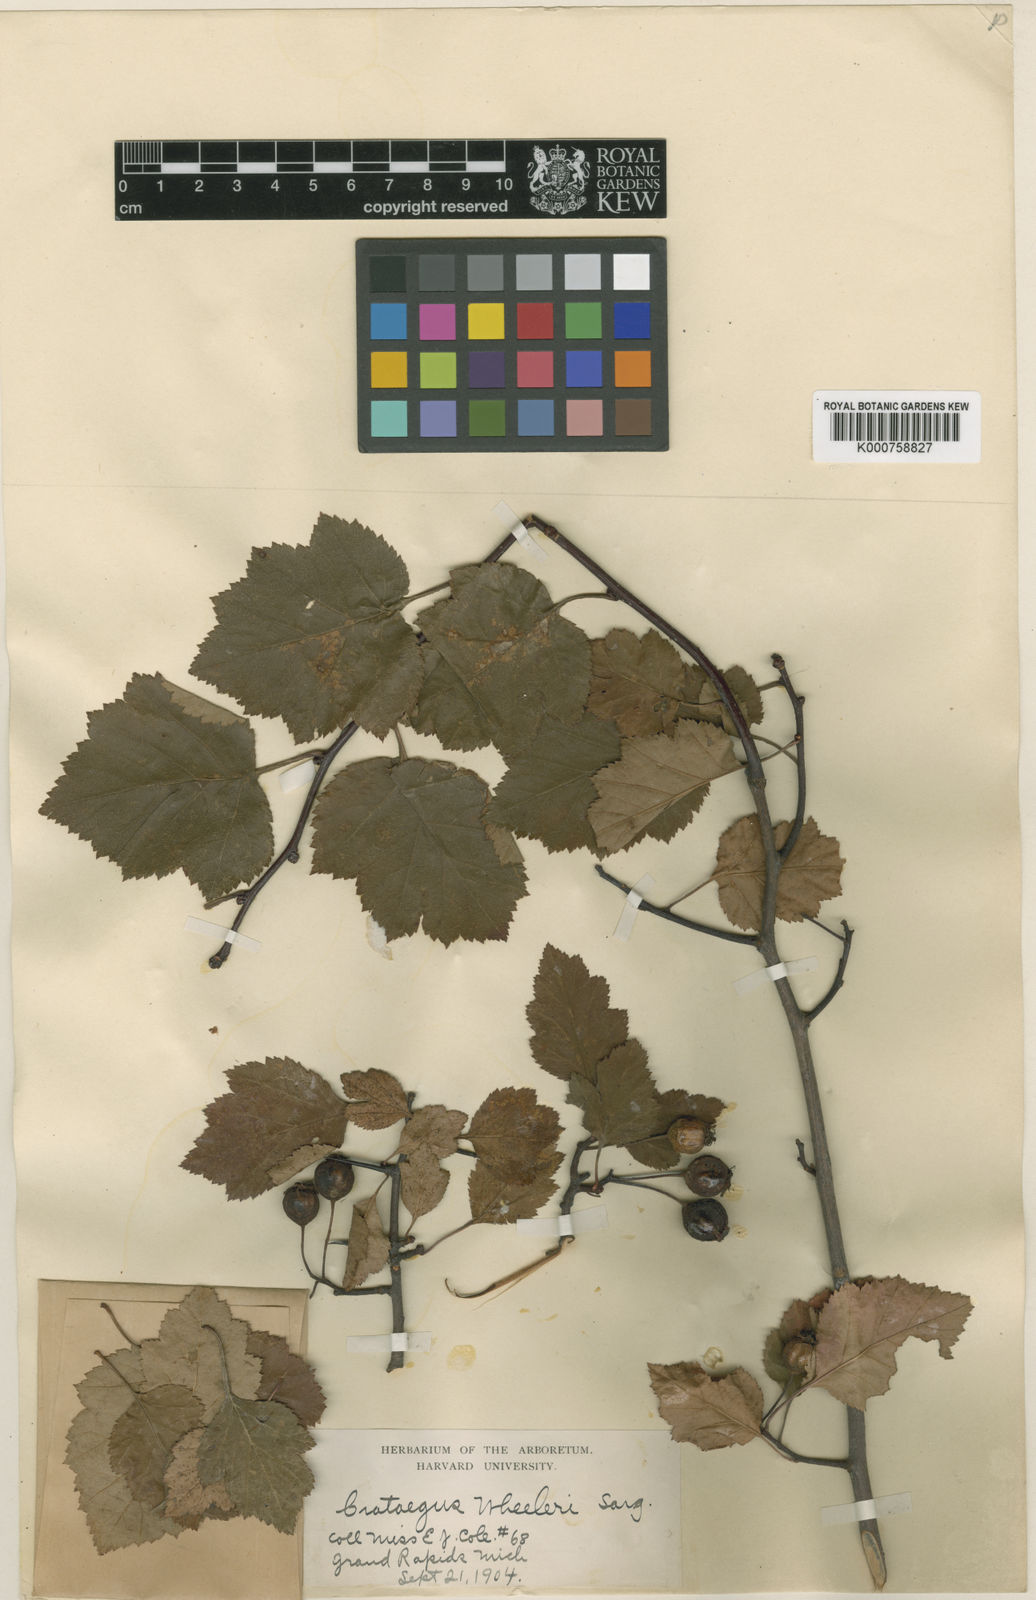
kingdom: Plantae
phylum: Tracheophyta
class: Magnoliopsida
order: Rosales
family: Rosaceae
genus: Crataegus
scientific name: Crataegus wheeleri
